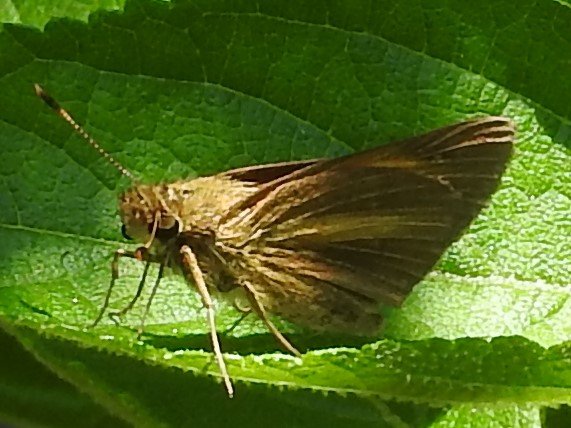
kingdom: Animalia
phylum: Arthropoda
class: Insecta
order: Lepidoptera
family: Hesperiidae
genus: Euphyes
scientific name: Euphyes dion
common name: Dion Skipper
